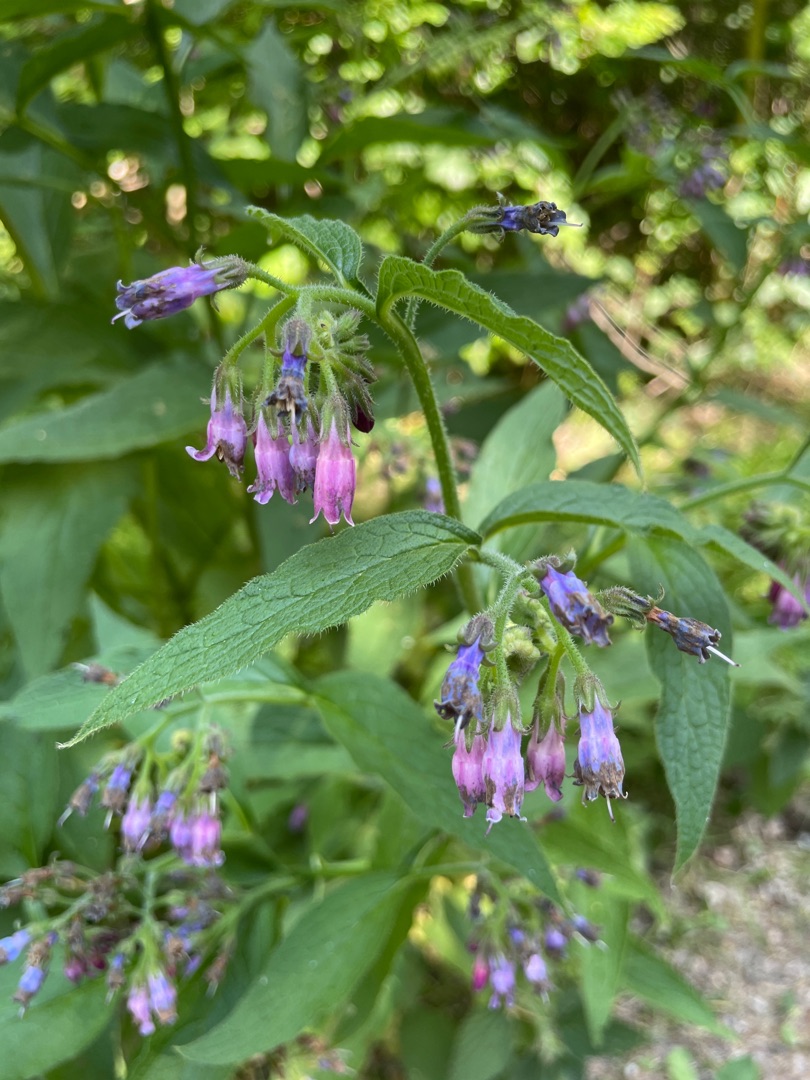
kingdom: Plantae
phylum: Tracheophyta
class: Magnoliopsida
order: Boraginales
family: Boraginaceae
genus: Symphytum
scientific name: Symphytum uplandicum
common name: Foder-kulsukker
